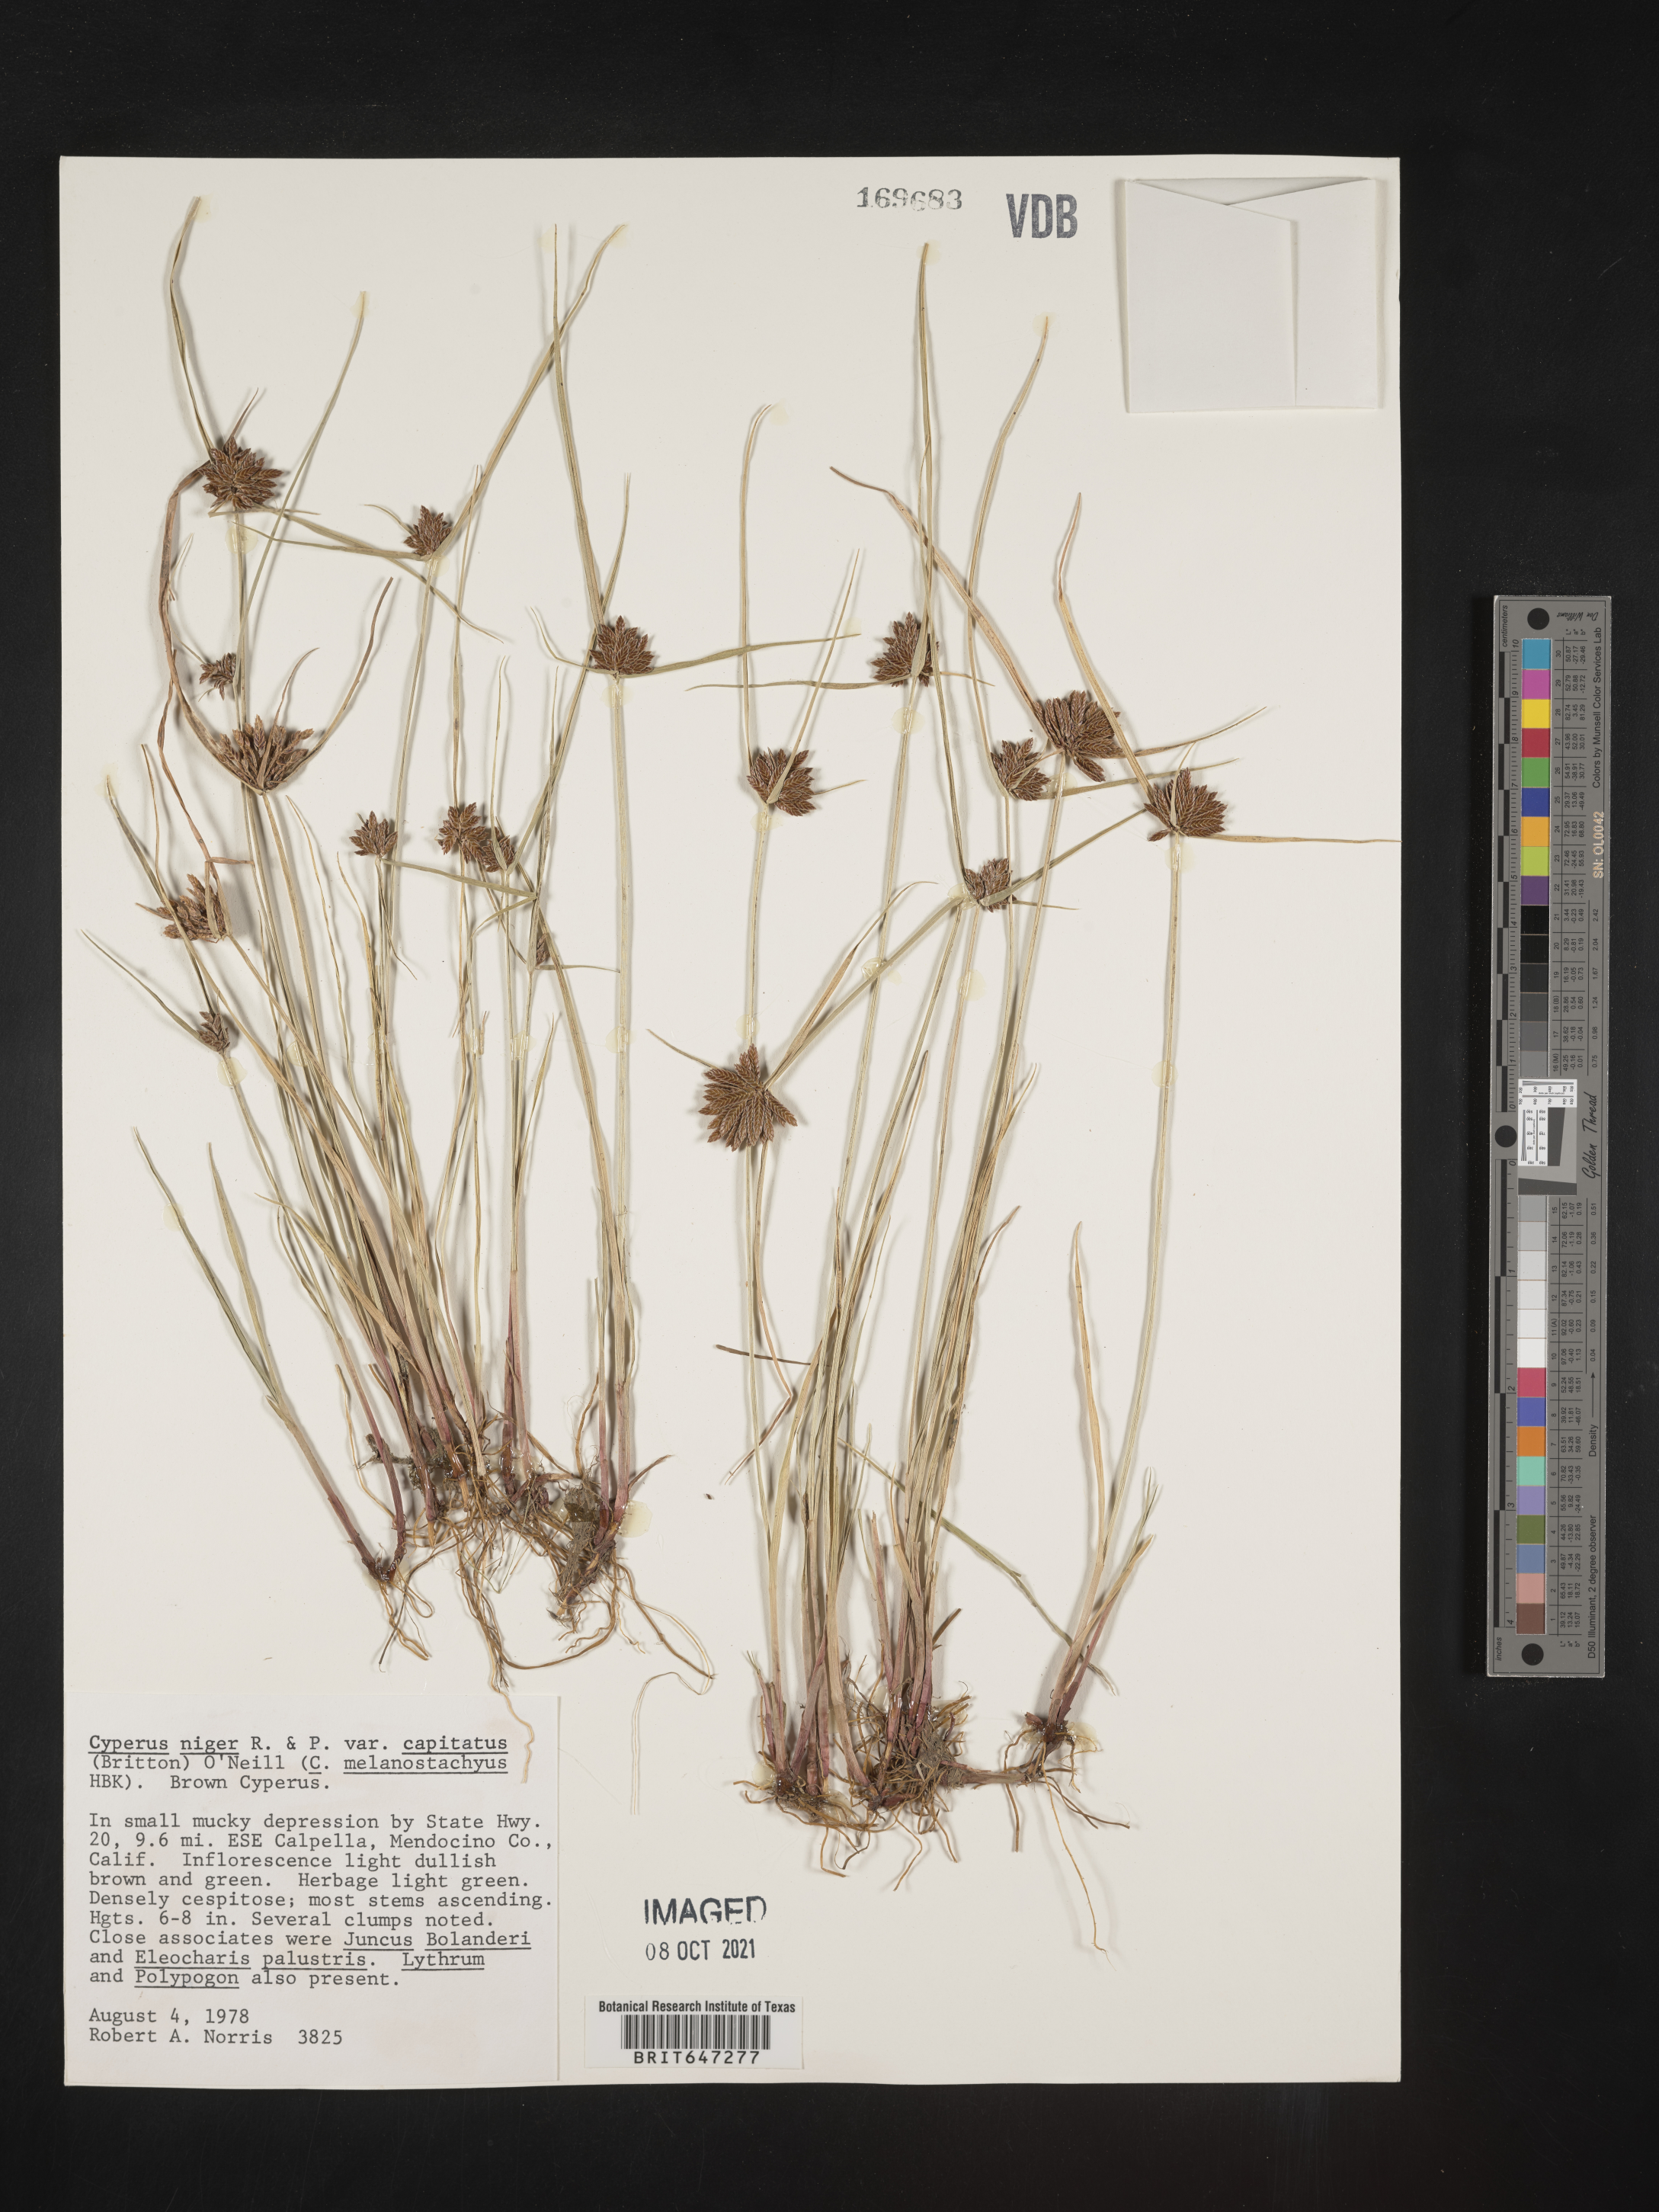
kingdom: Plantae
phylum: Tracheophyta
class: Liliopsida
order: Poales
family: Cyperaceae
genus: Cyperus
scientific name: Cyperus melanostachyus
